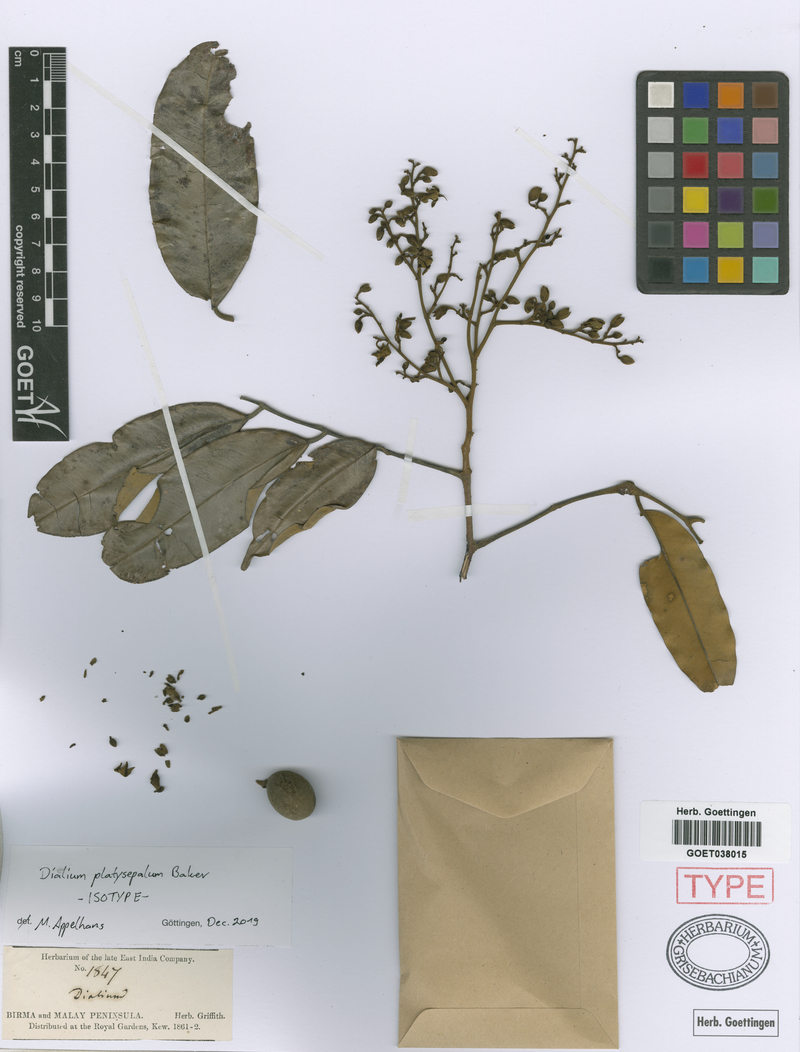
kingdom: Plantae
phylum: Tracheophyta
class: Magnoliopsida
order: Fabales
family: Fabaceae
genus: Dialium
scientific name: Dialium platysepalum
